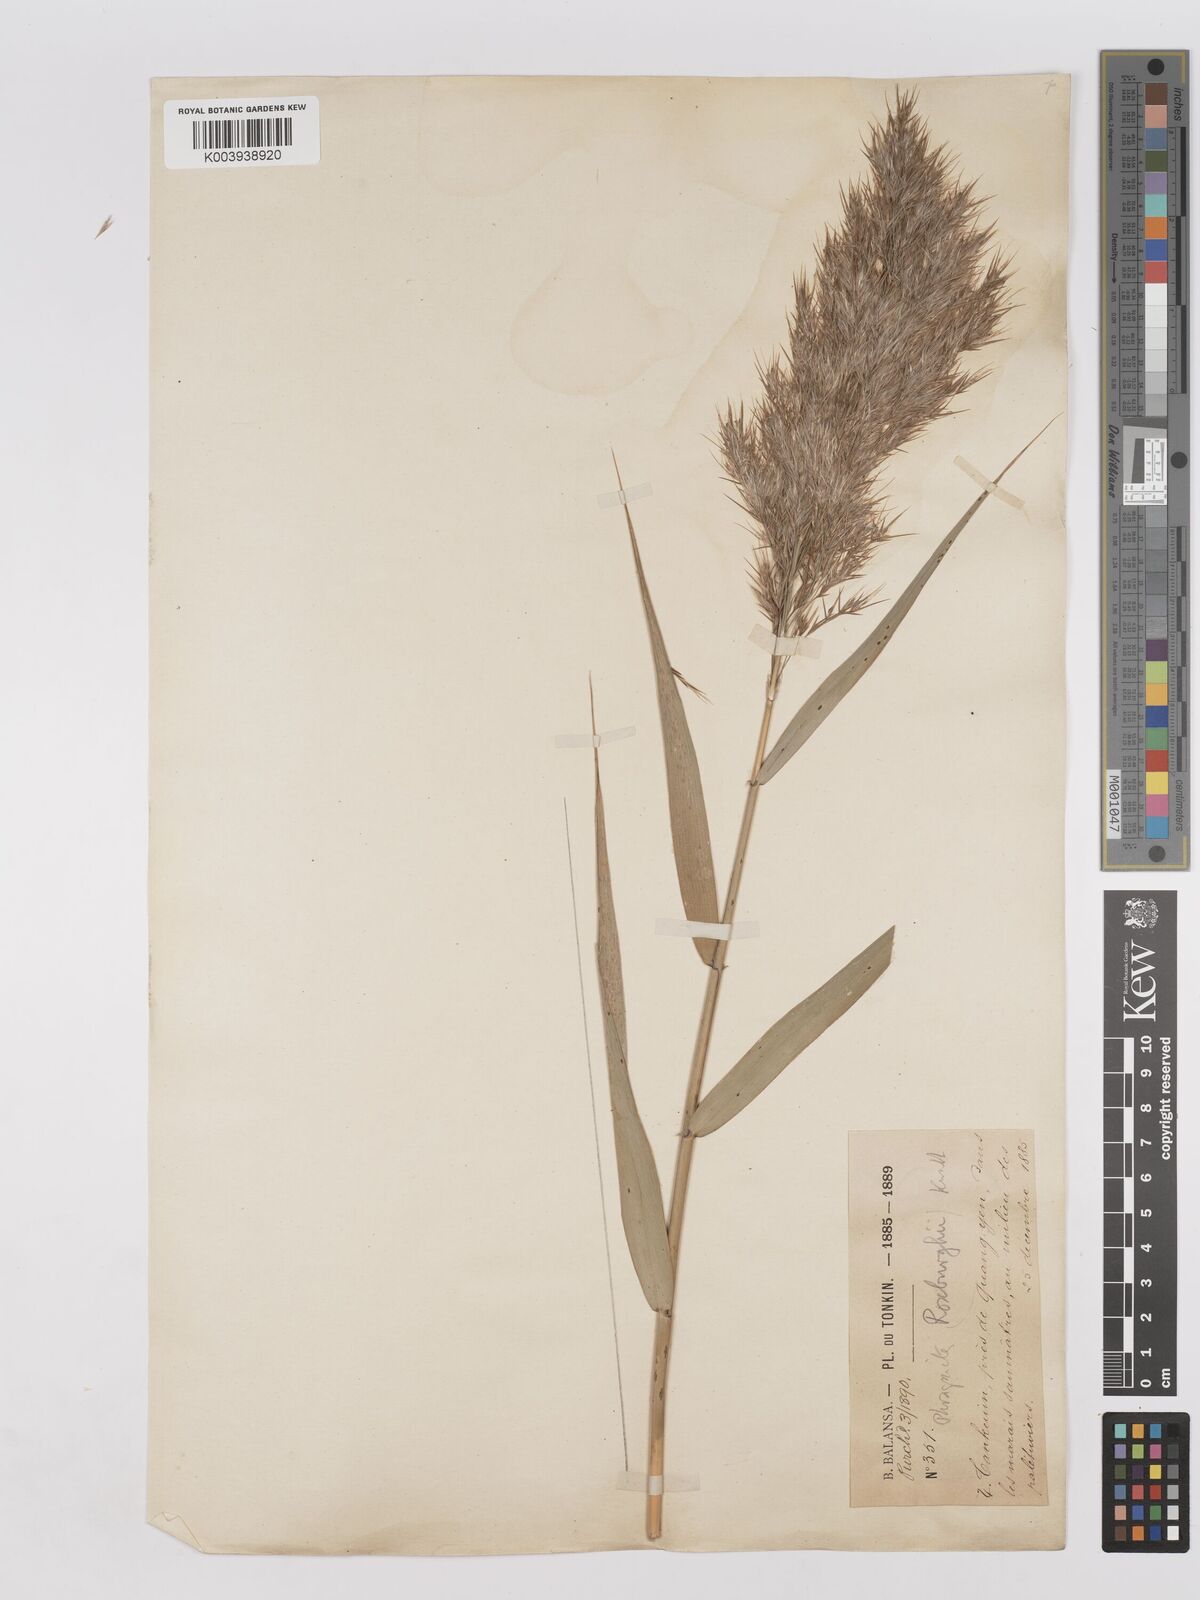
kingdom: Plantae
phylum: Tracheophyta
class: Liliopsida
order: Poales
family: Poaceae
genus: Phragmites
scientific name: Phragmites karka
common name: Tropical reed
